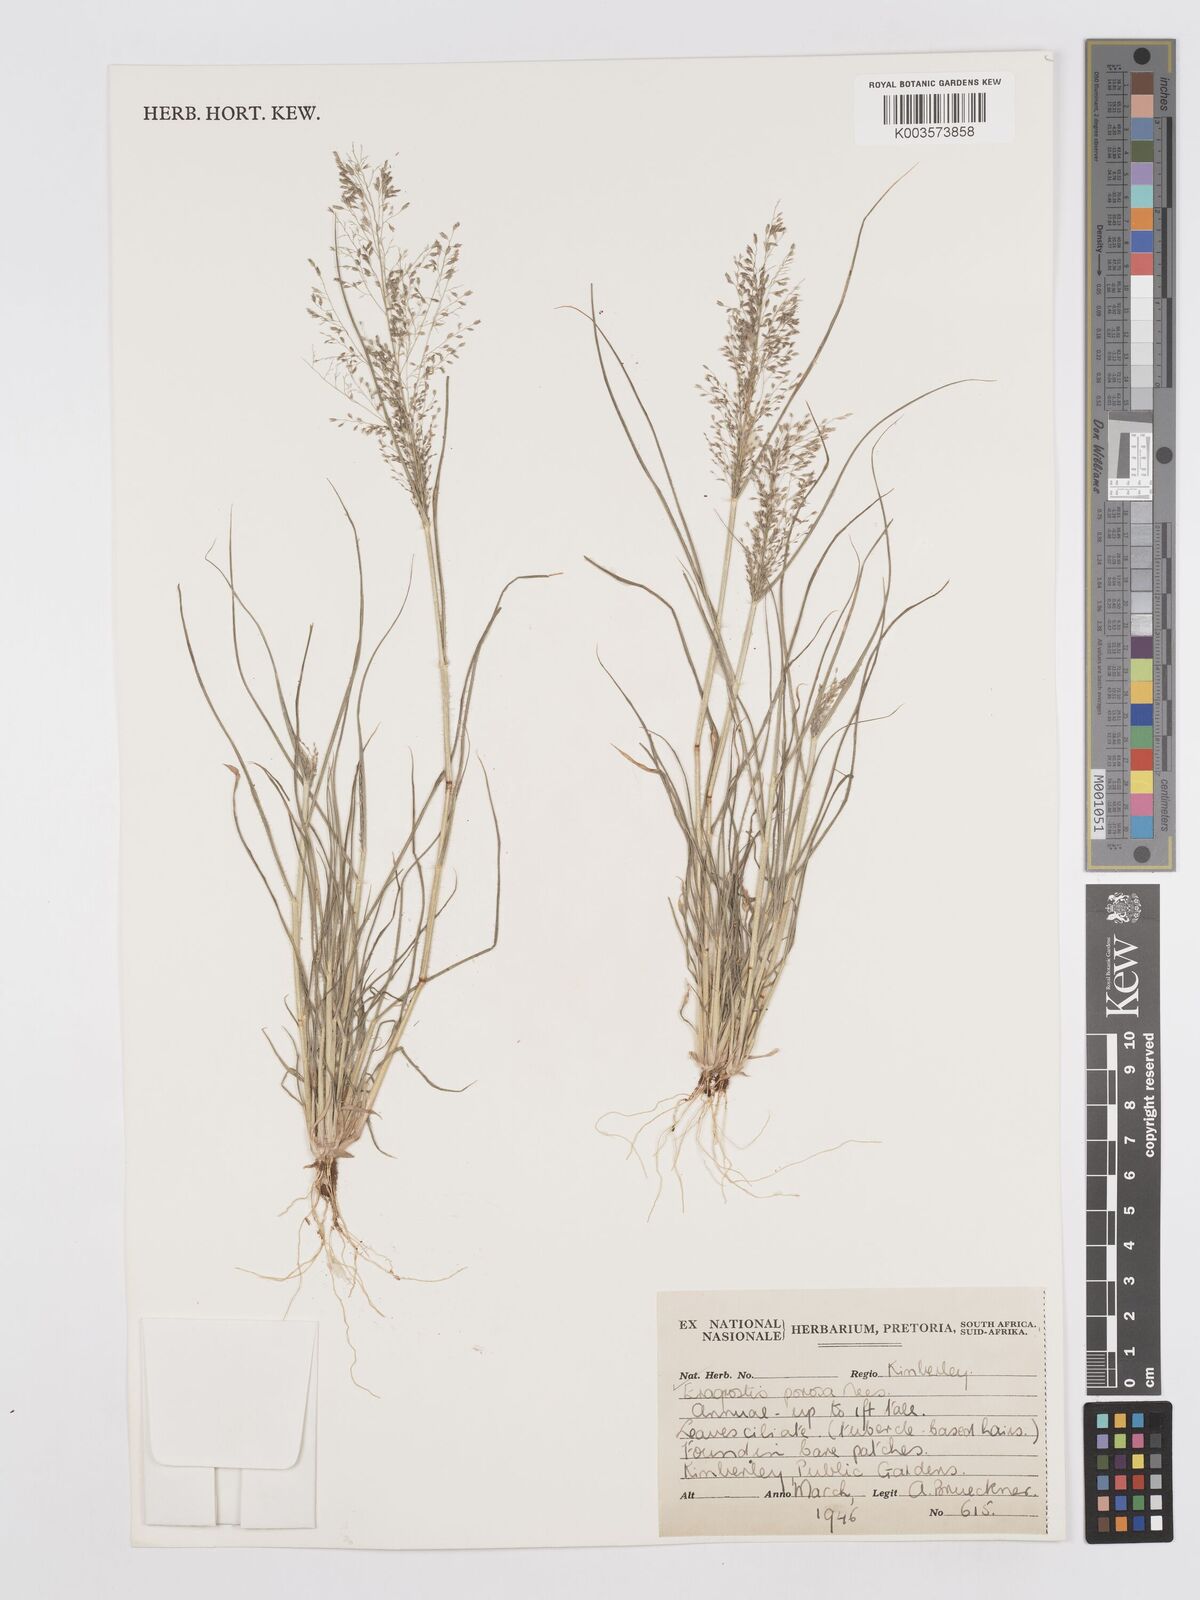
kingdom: Plantae
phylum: Tracheophyta
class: Liliopsida
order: Poales
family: Poaceae
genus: Eragrostis
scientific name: Eragrostis porosa
